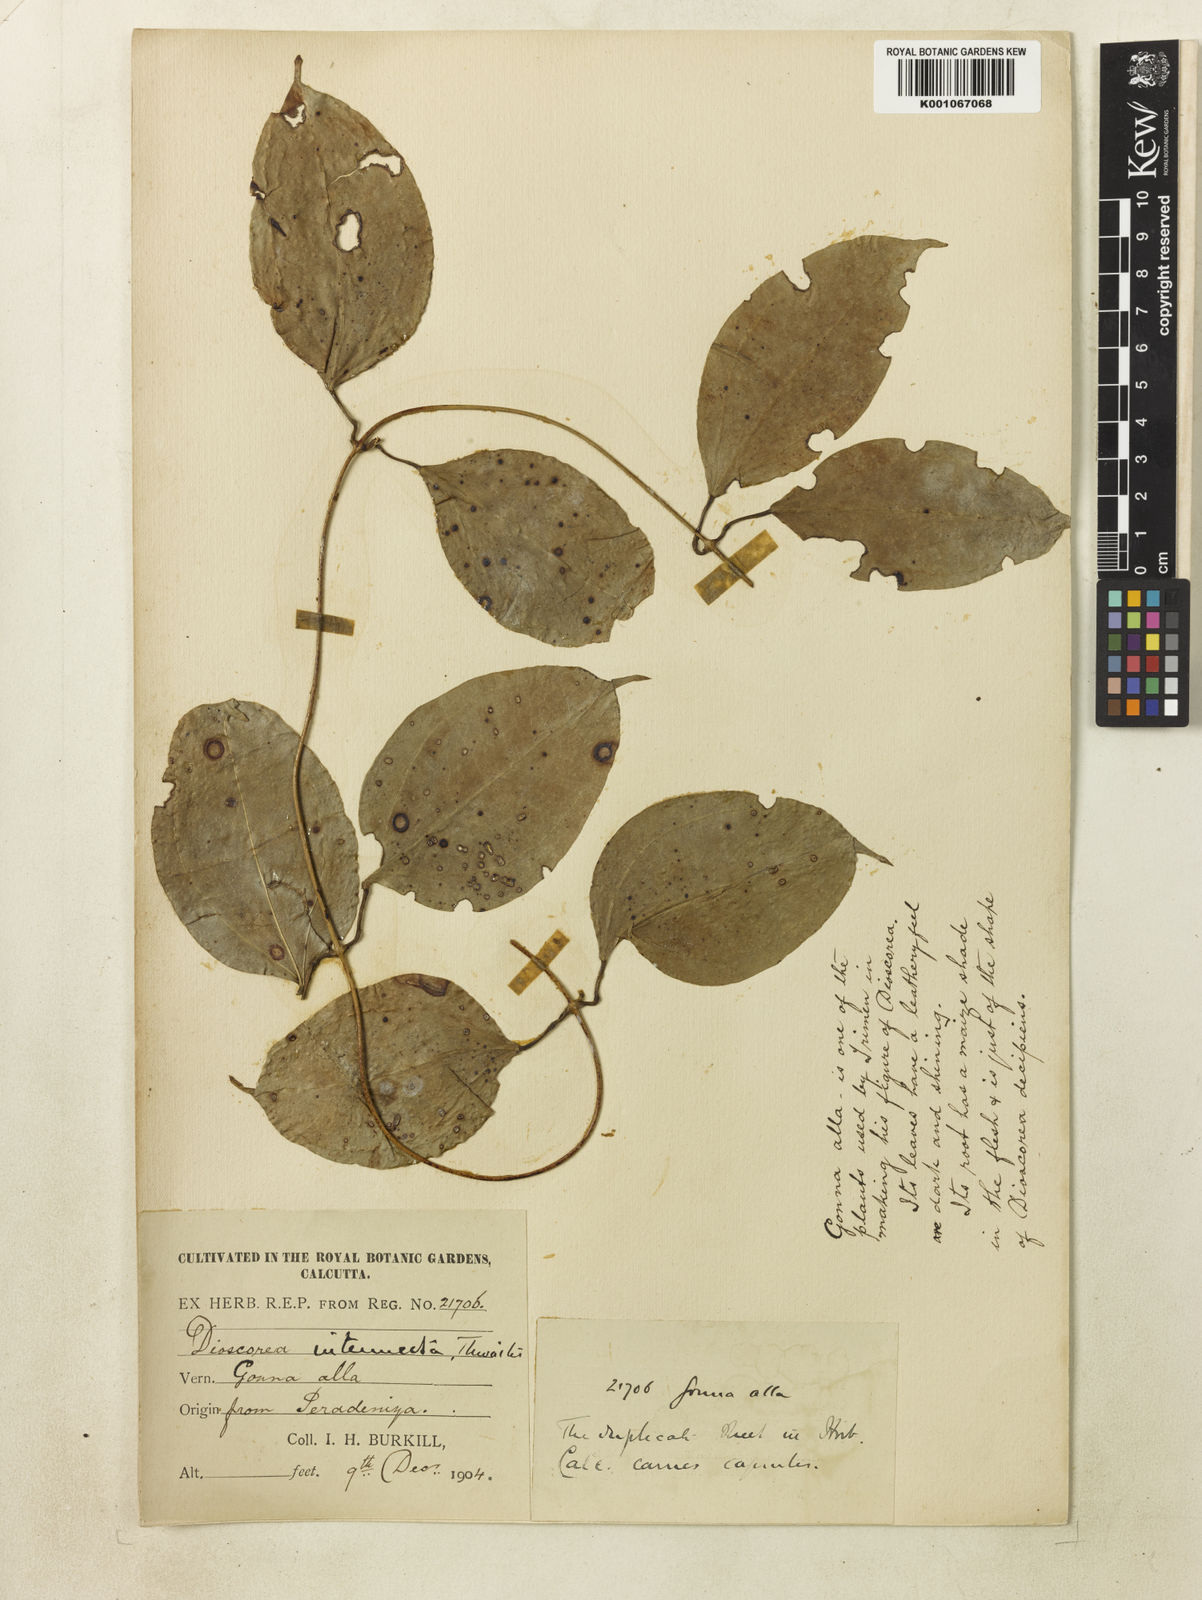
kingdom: Plantae
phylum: Tracheophyta
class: Liliopsida
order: Dioscoreales
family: Dioscoreaceae
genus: Dioscorea
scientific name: Dioscorea intermedia
